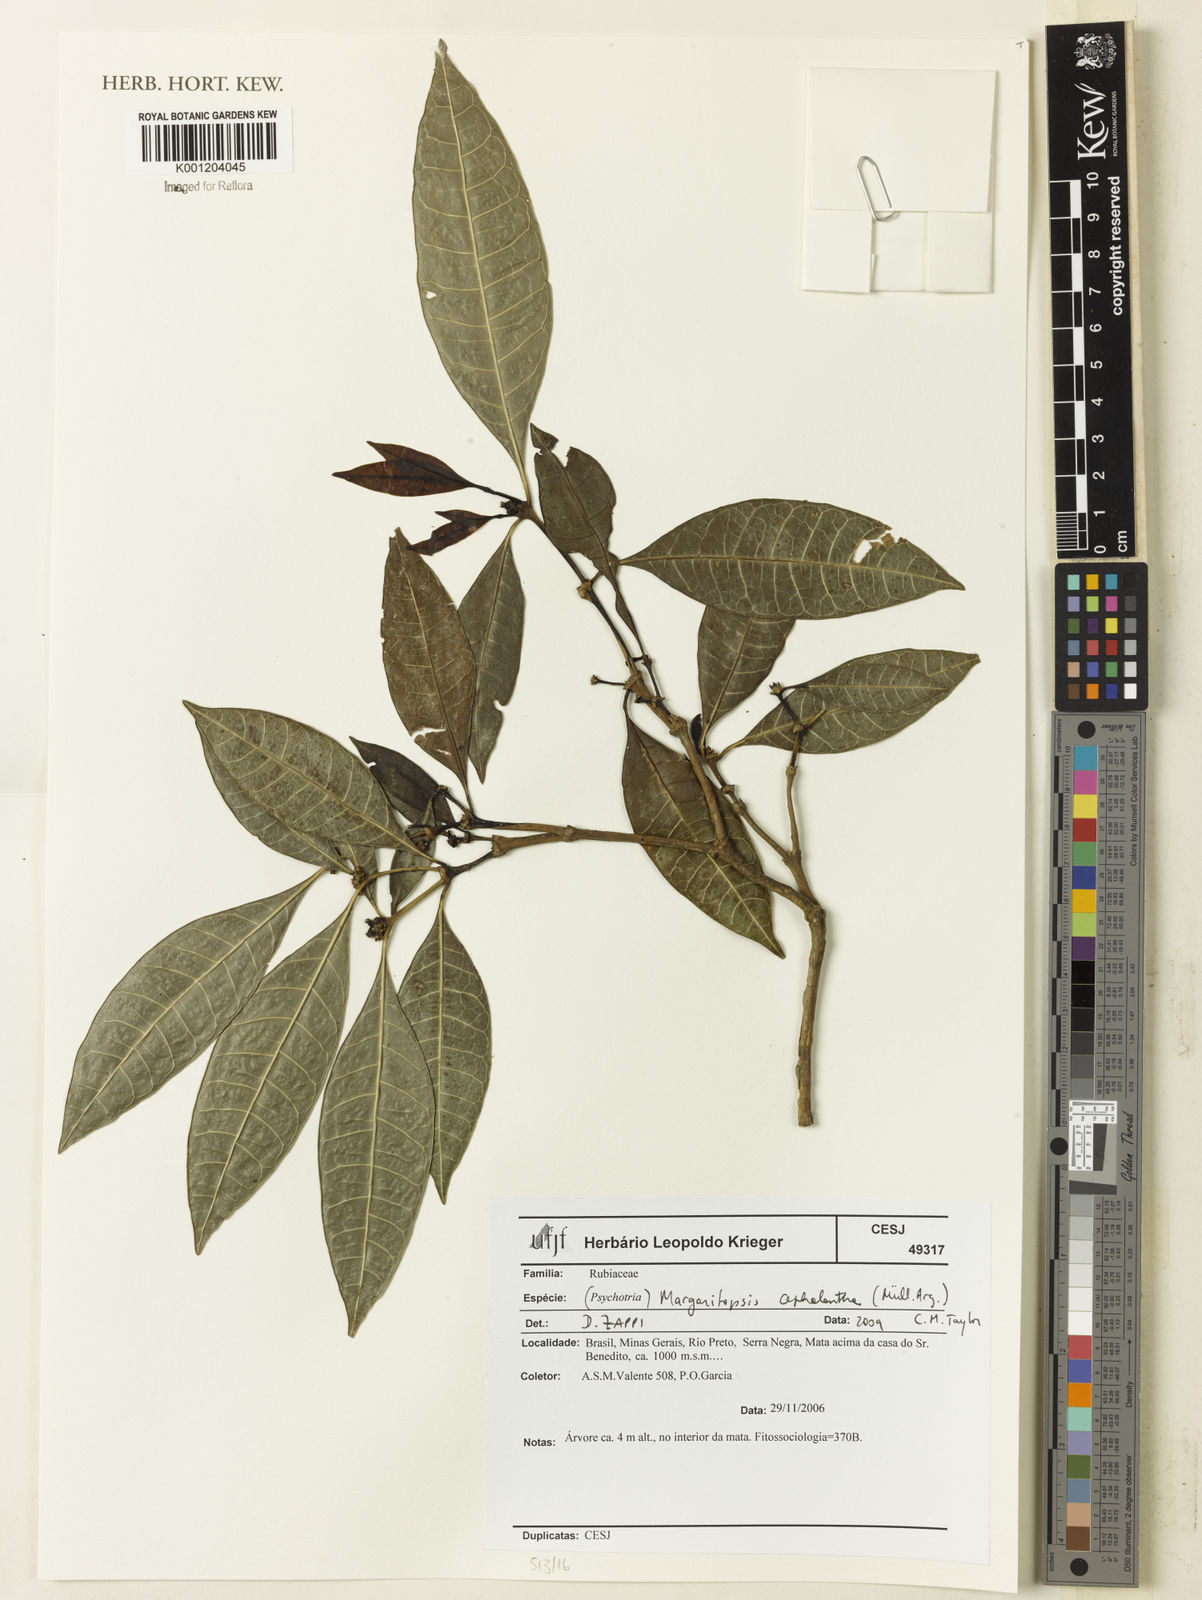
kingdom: Plantae
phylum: Tracheophyta
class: Magnoliopsida
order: Gentianales
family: Rubiaceae
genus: Eumachia
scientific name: Eumachia
